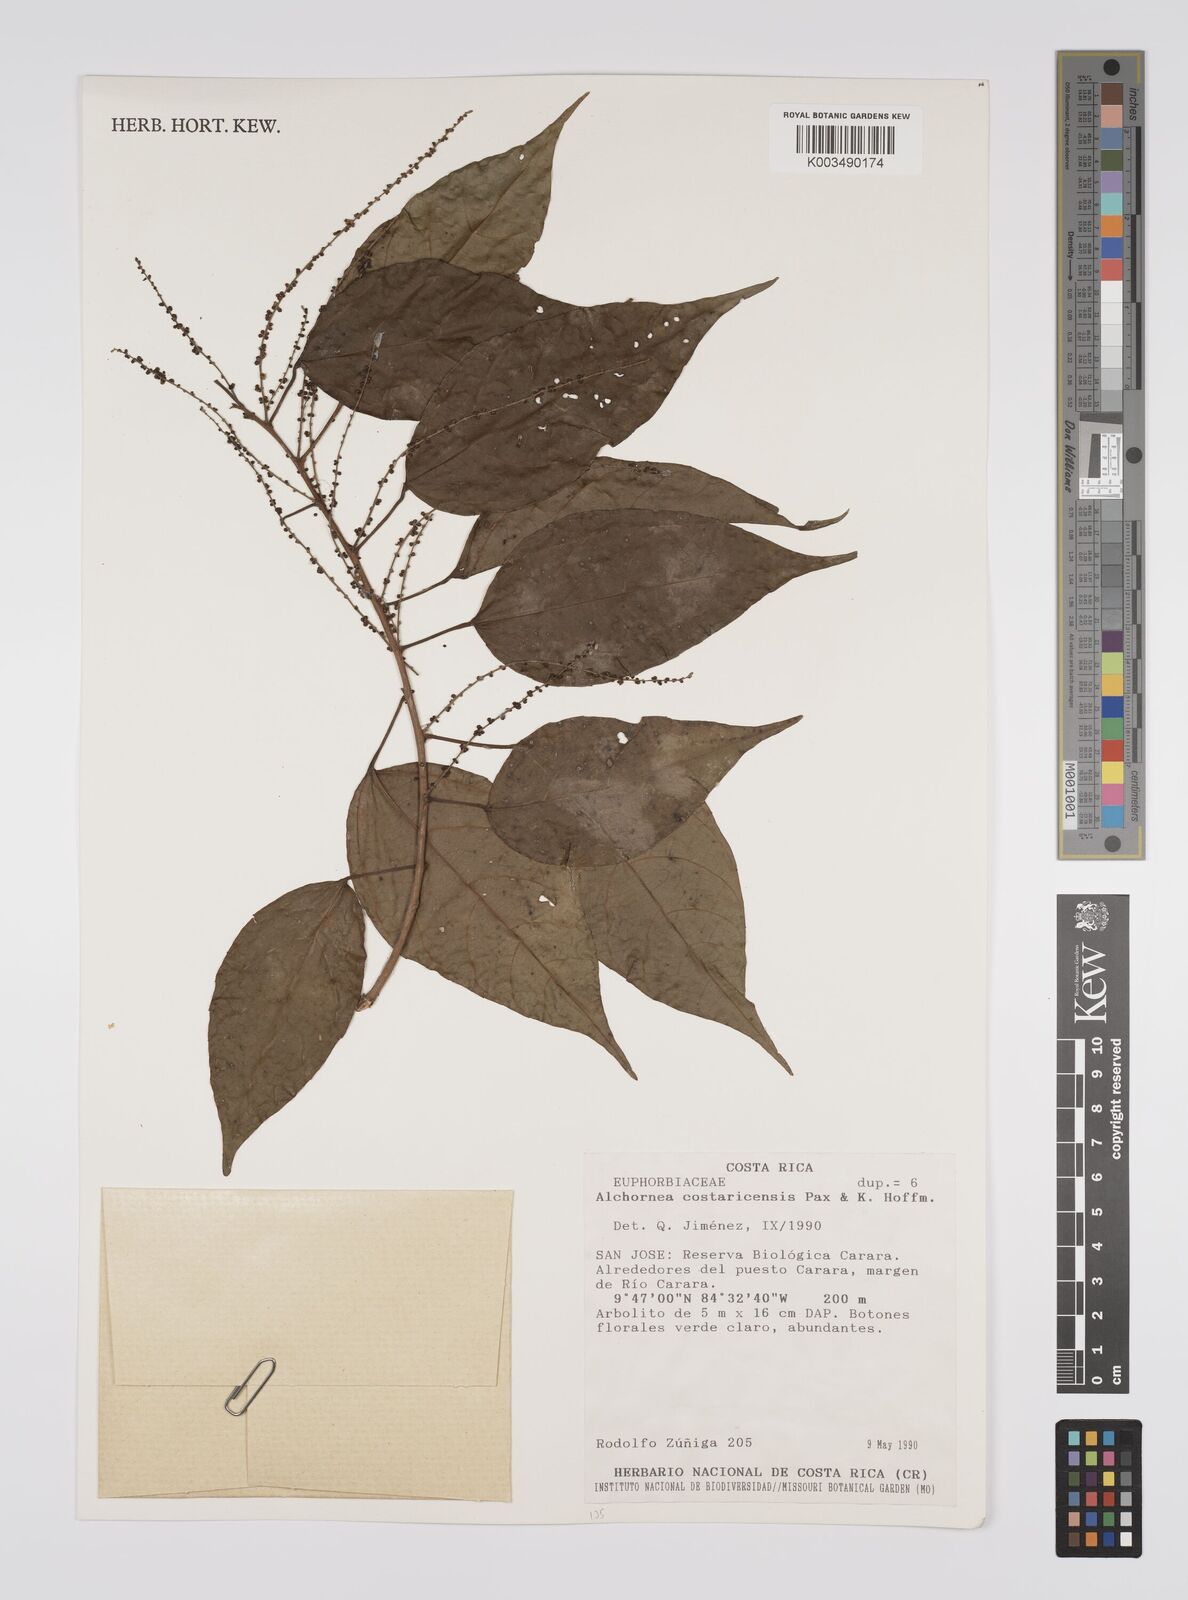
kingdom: Plantae
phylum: Tracheophyta
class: Magnoliopsida
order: Malpighiales
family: Euphorbiaceae
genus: Alchornea
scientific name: Alchornea costaricensis
